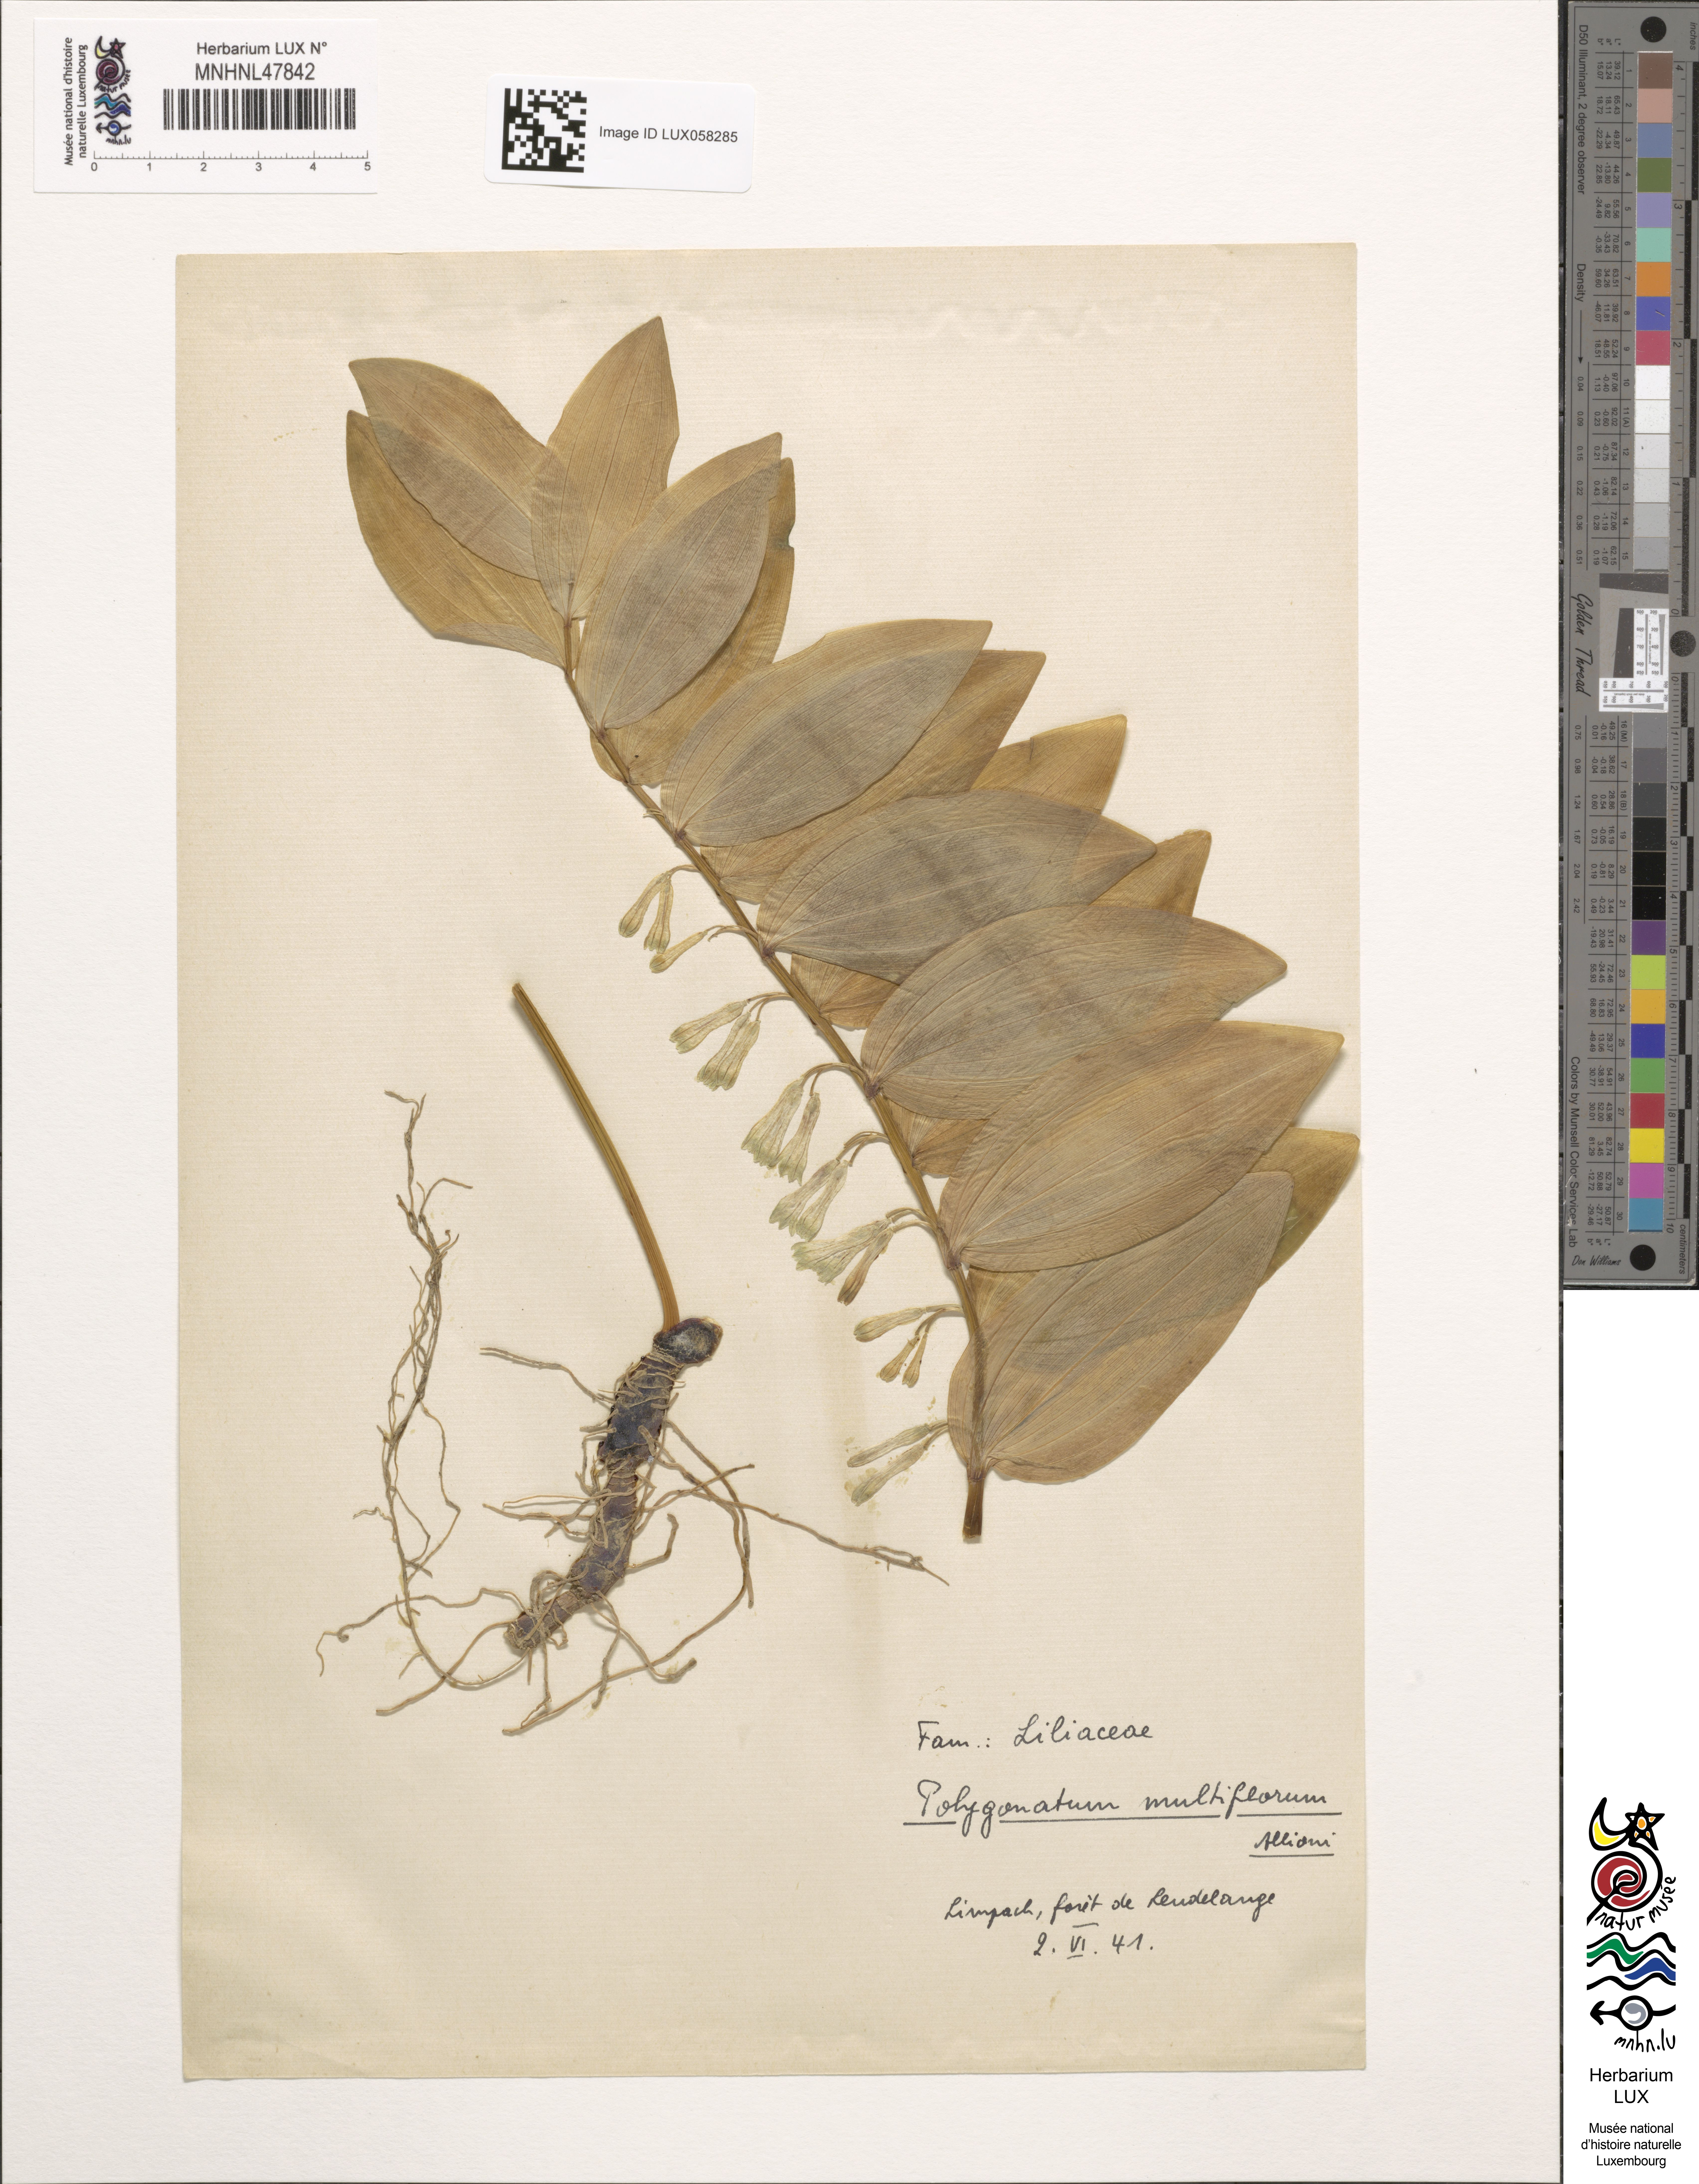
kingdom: Plantae
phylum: Tracheophyta
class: Liliopsida
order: Asparagales
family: Asparagaceae
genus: Polygonatum
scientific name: Polygonatum multiflorum
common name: Solomon's-seal
